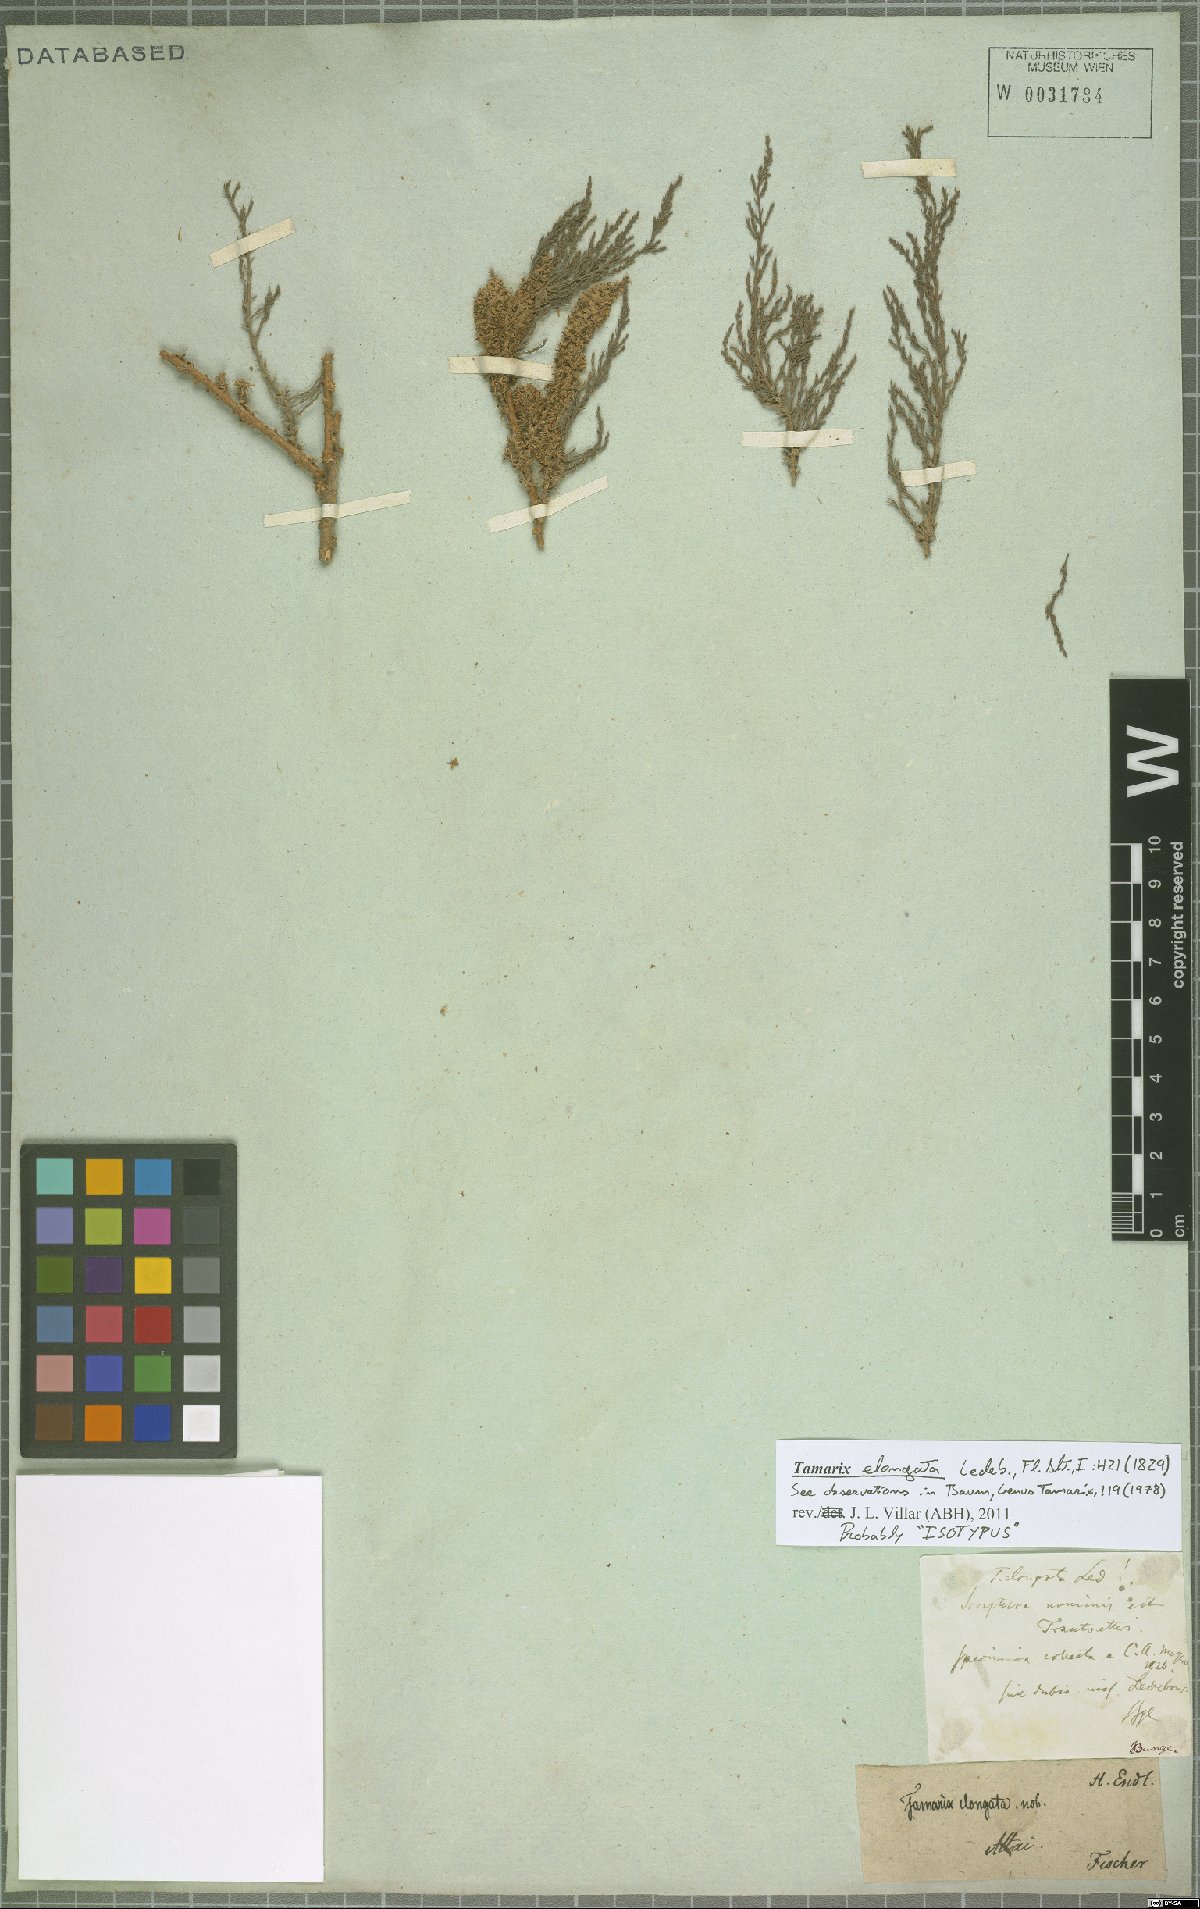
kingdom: Plantae
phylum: Tracheophyta
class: Magnoliopsida
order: Caryophyllales
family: Tamaricaceae
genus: Tamarix
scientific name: Tamarix elongata
